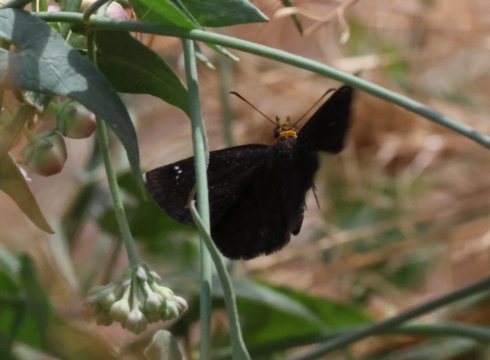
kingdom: Animalia
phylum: Arthropoda
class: Insecta
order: Lepidoptera
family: Hesperiidae
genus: Staphylus
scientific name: Staphylus ceos
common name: Golden-headed Scallopwing
